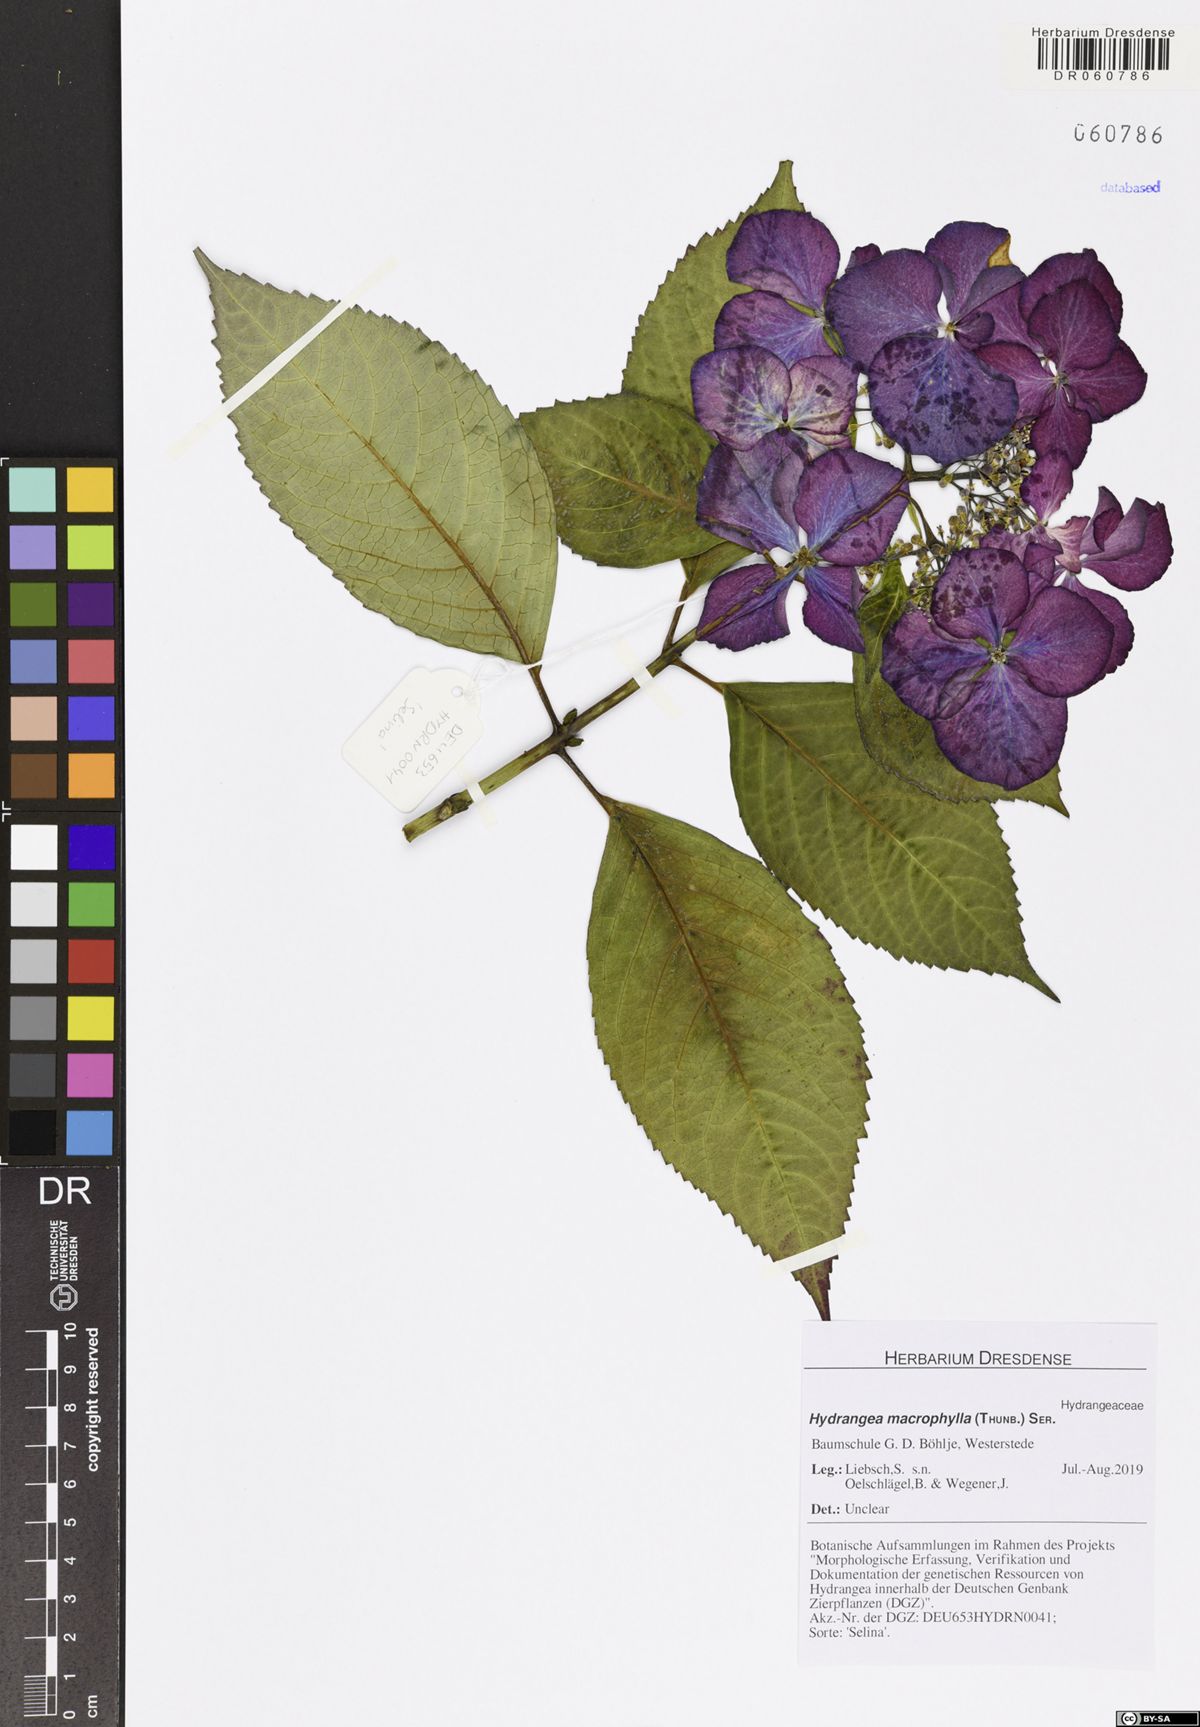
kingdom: Plantae
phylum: Tracheophyta
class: Magnoliopsida
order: Cornales
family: Hydrangeaceae
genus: Hydrangea
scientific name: Hydrangea macrophylla
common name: Hydrangea
